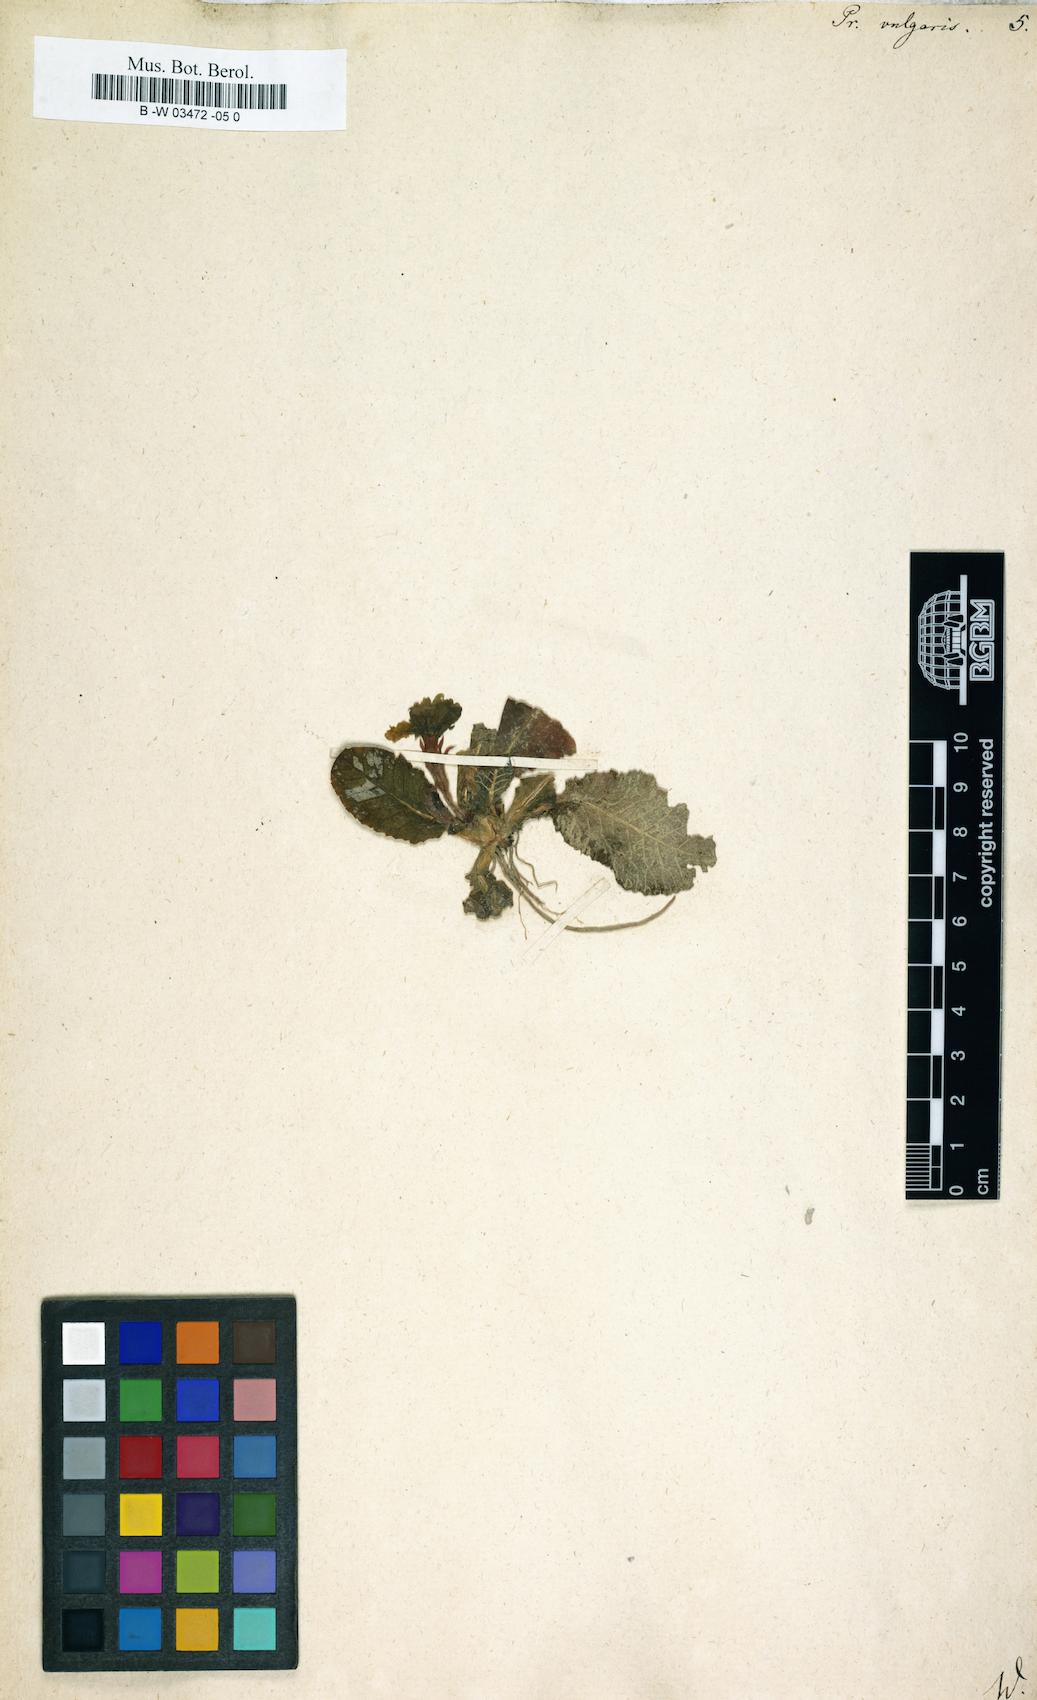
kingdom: Plantae
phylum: Tracheophyta
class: Magnoliopsida
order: Ericales
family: Primulaceae
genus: Primula
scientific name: Primula vulgaris
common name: Primrose
